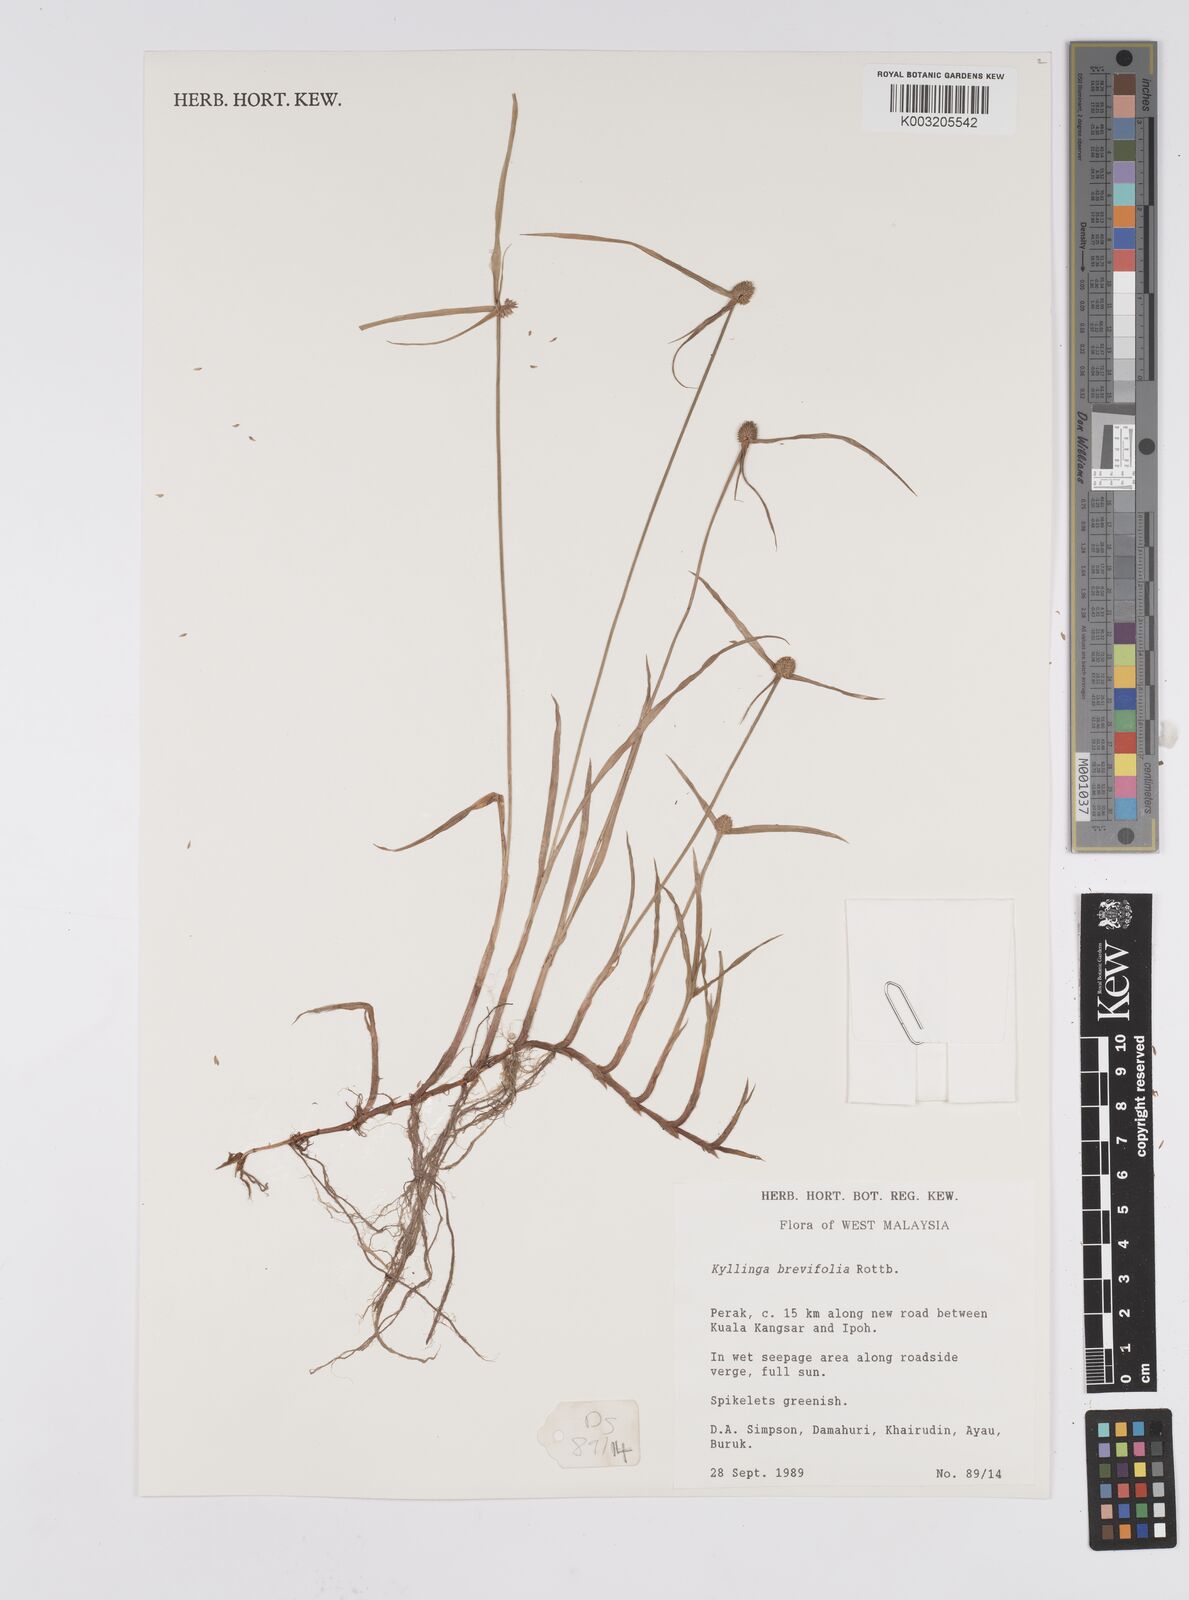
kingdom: Plantae
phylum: Tracheophyta
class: Liliopsida
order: Poales
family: Cyperaceae
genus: Cyperus
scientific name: Cyperus
